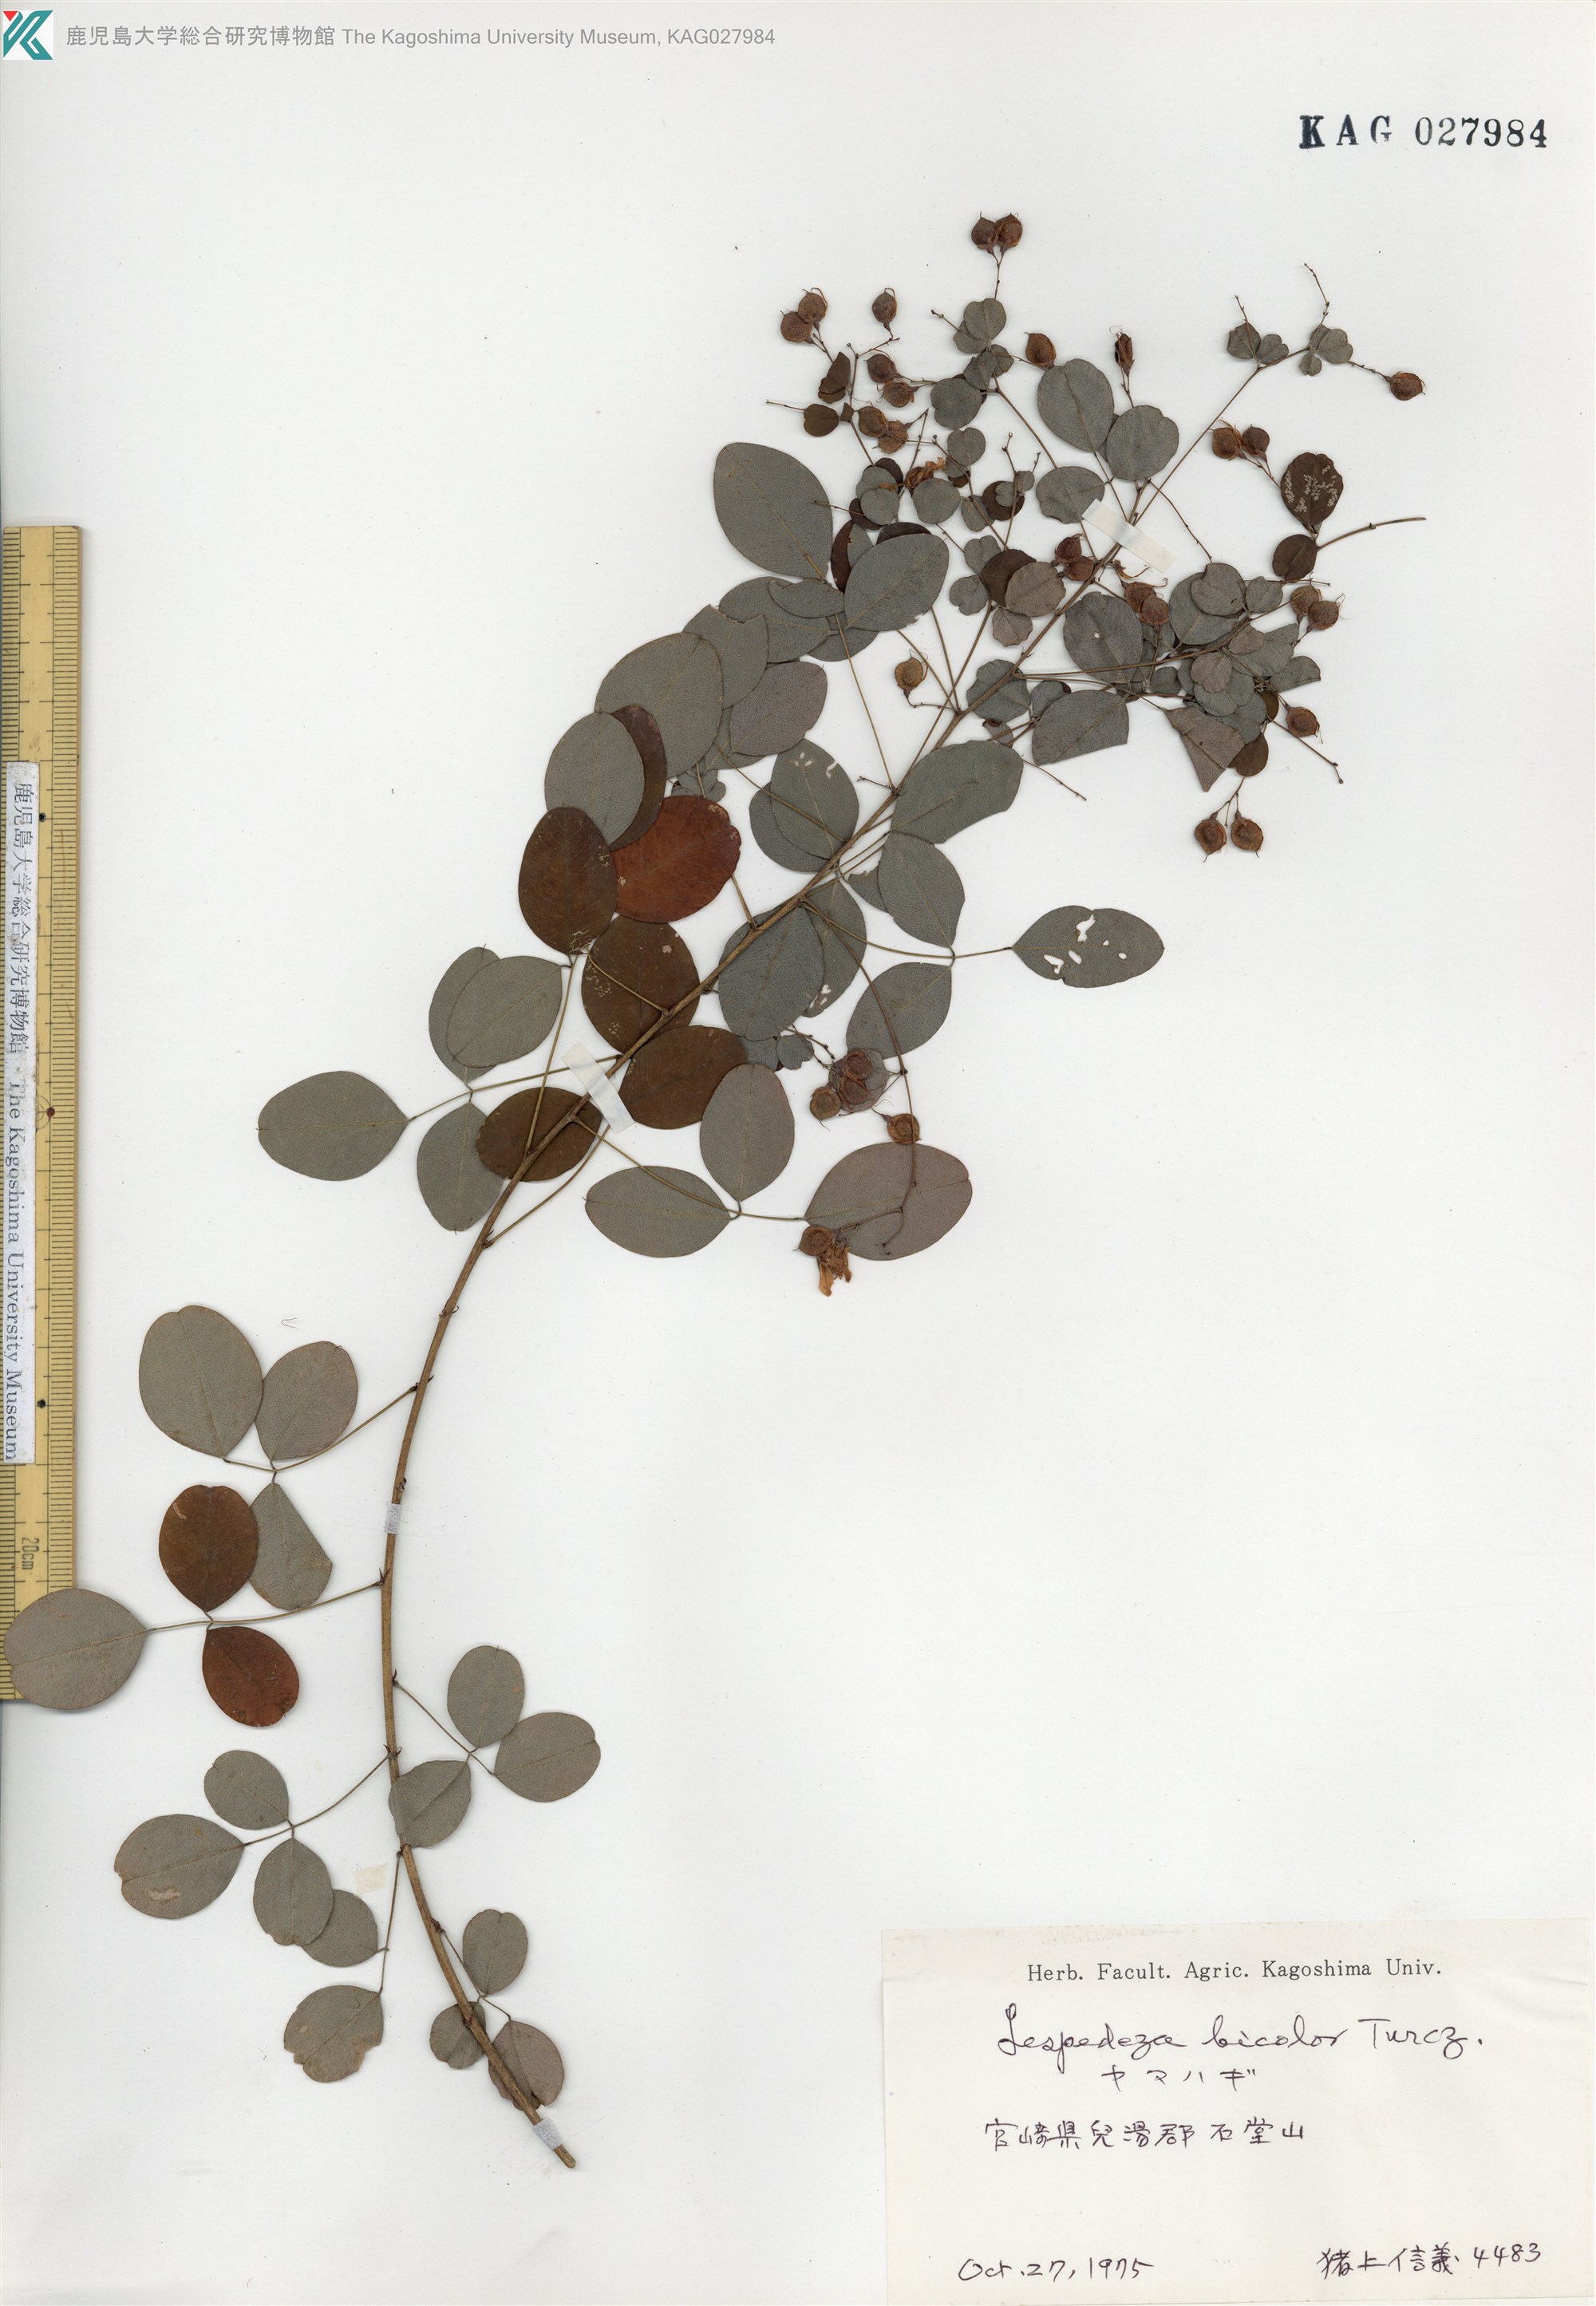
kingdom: Plantae
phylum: Tracheophyta
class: Magnoliopsida
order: Fabales
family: Fabaceae
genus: Lespedeza
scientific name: Lespedeza bicolor
